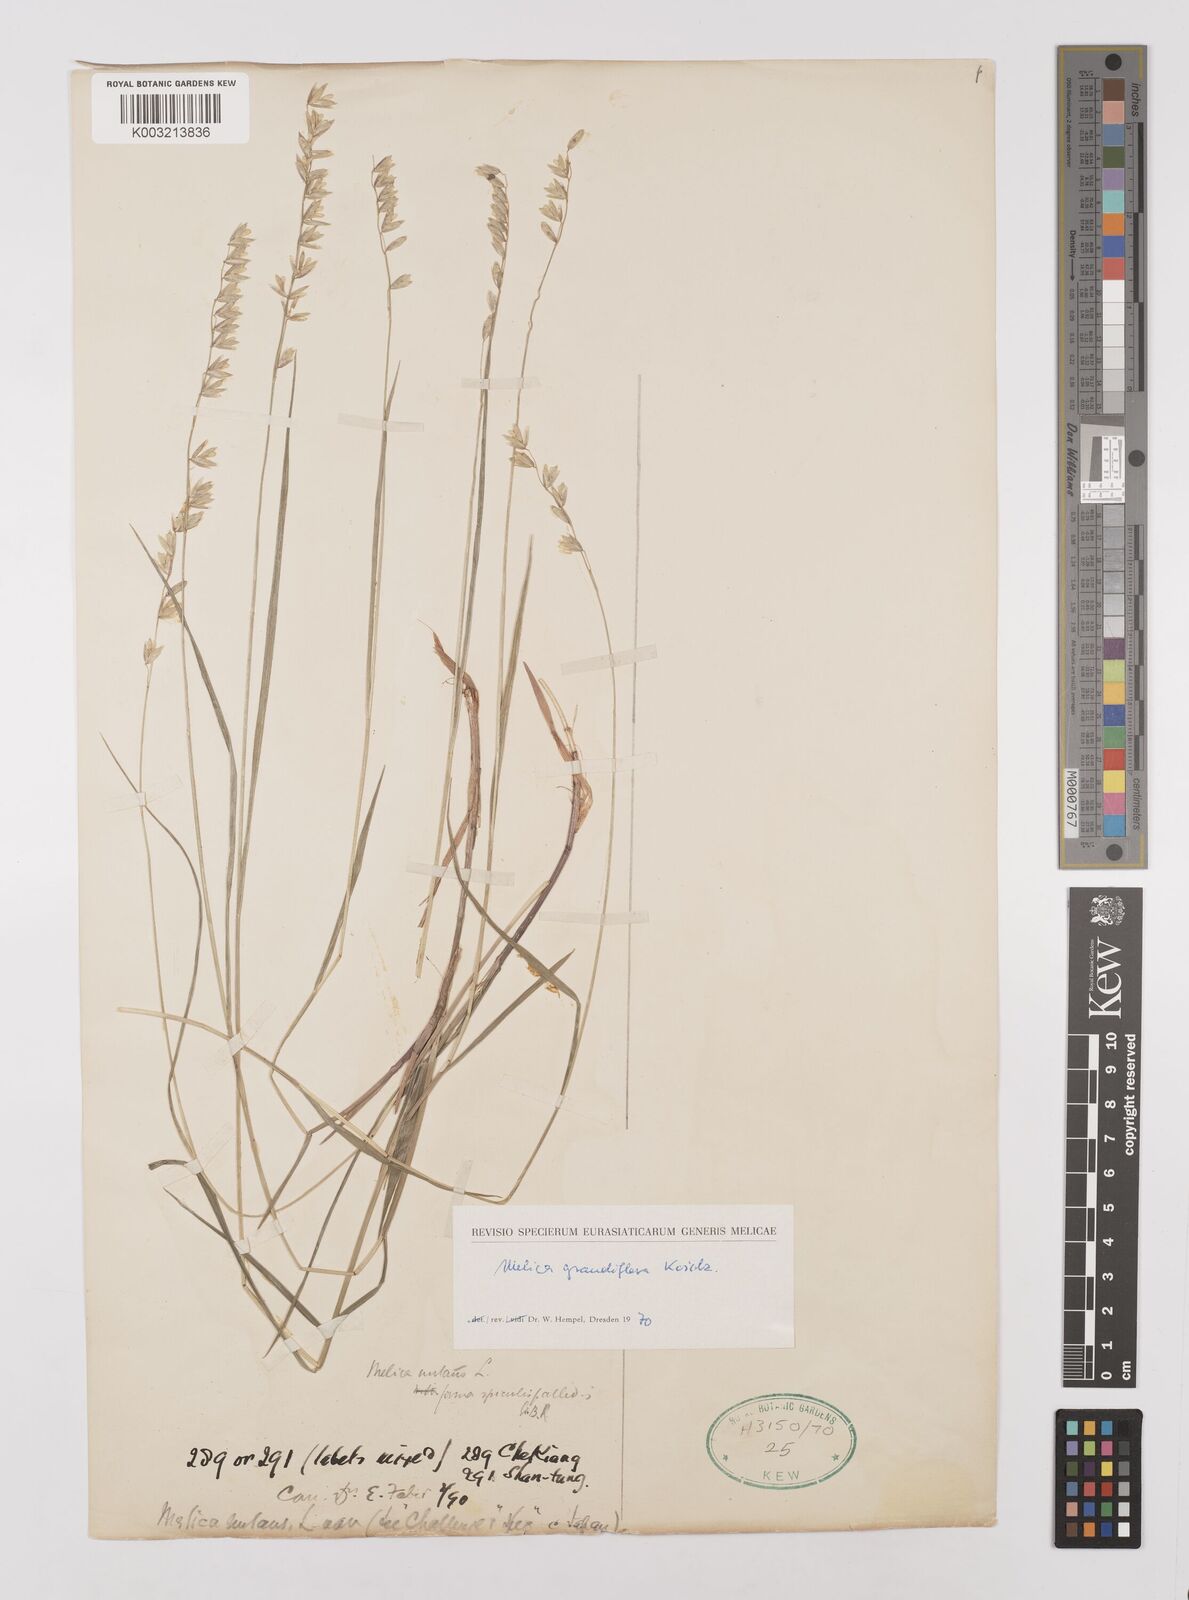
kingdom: Plantae
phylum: Tracheophyta
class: Liliopsida
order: Poales
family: Poaceae
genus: Melica
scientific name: Melica nutans
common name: Mountain melick
